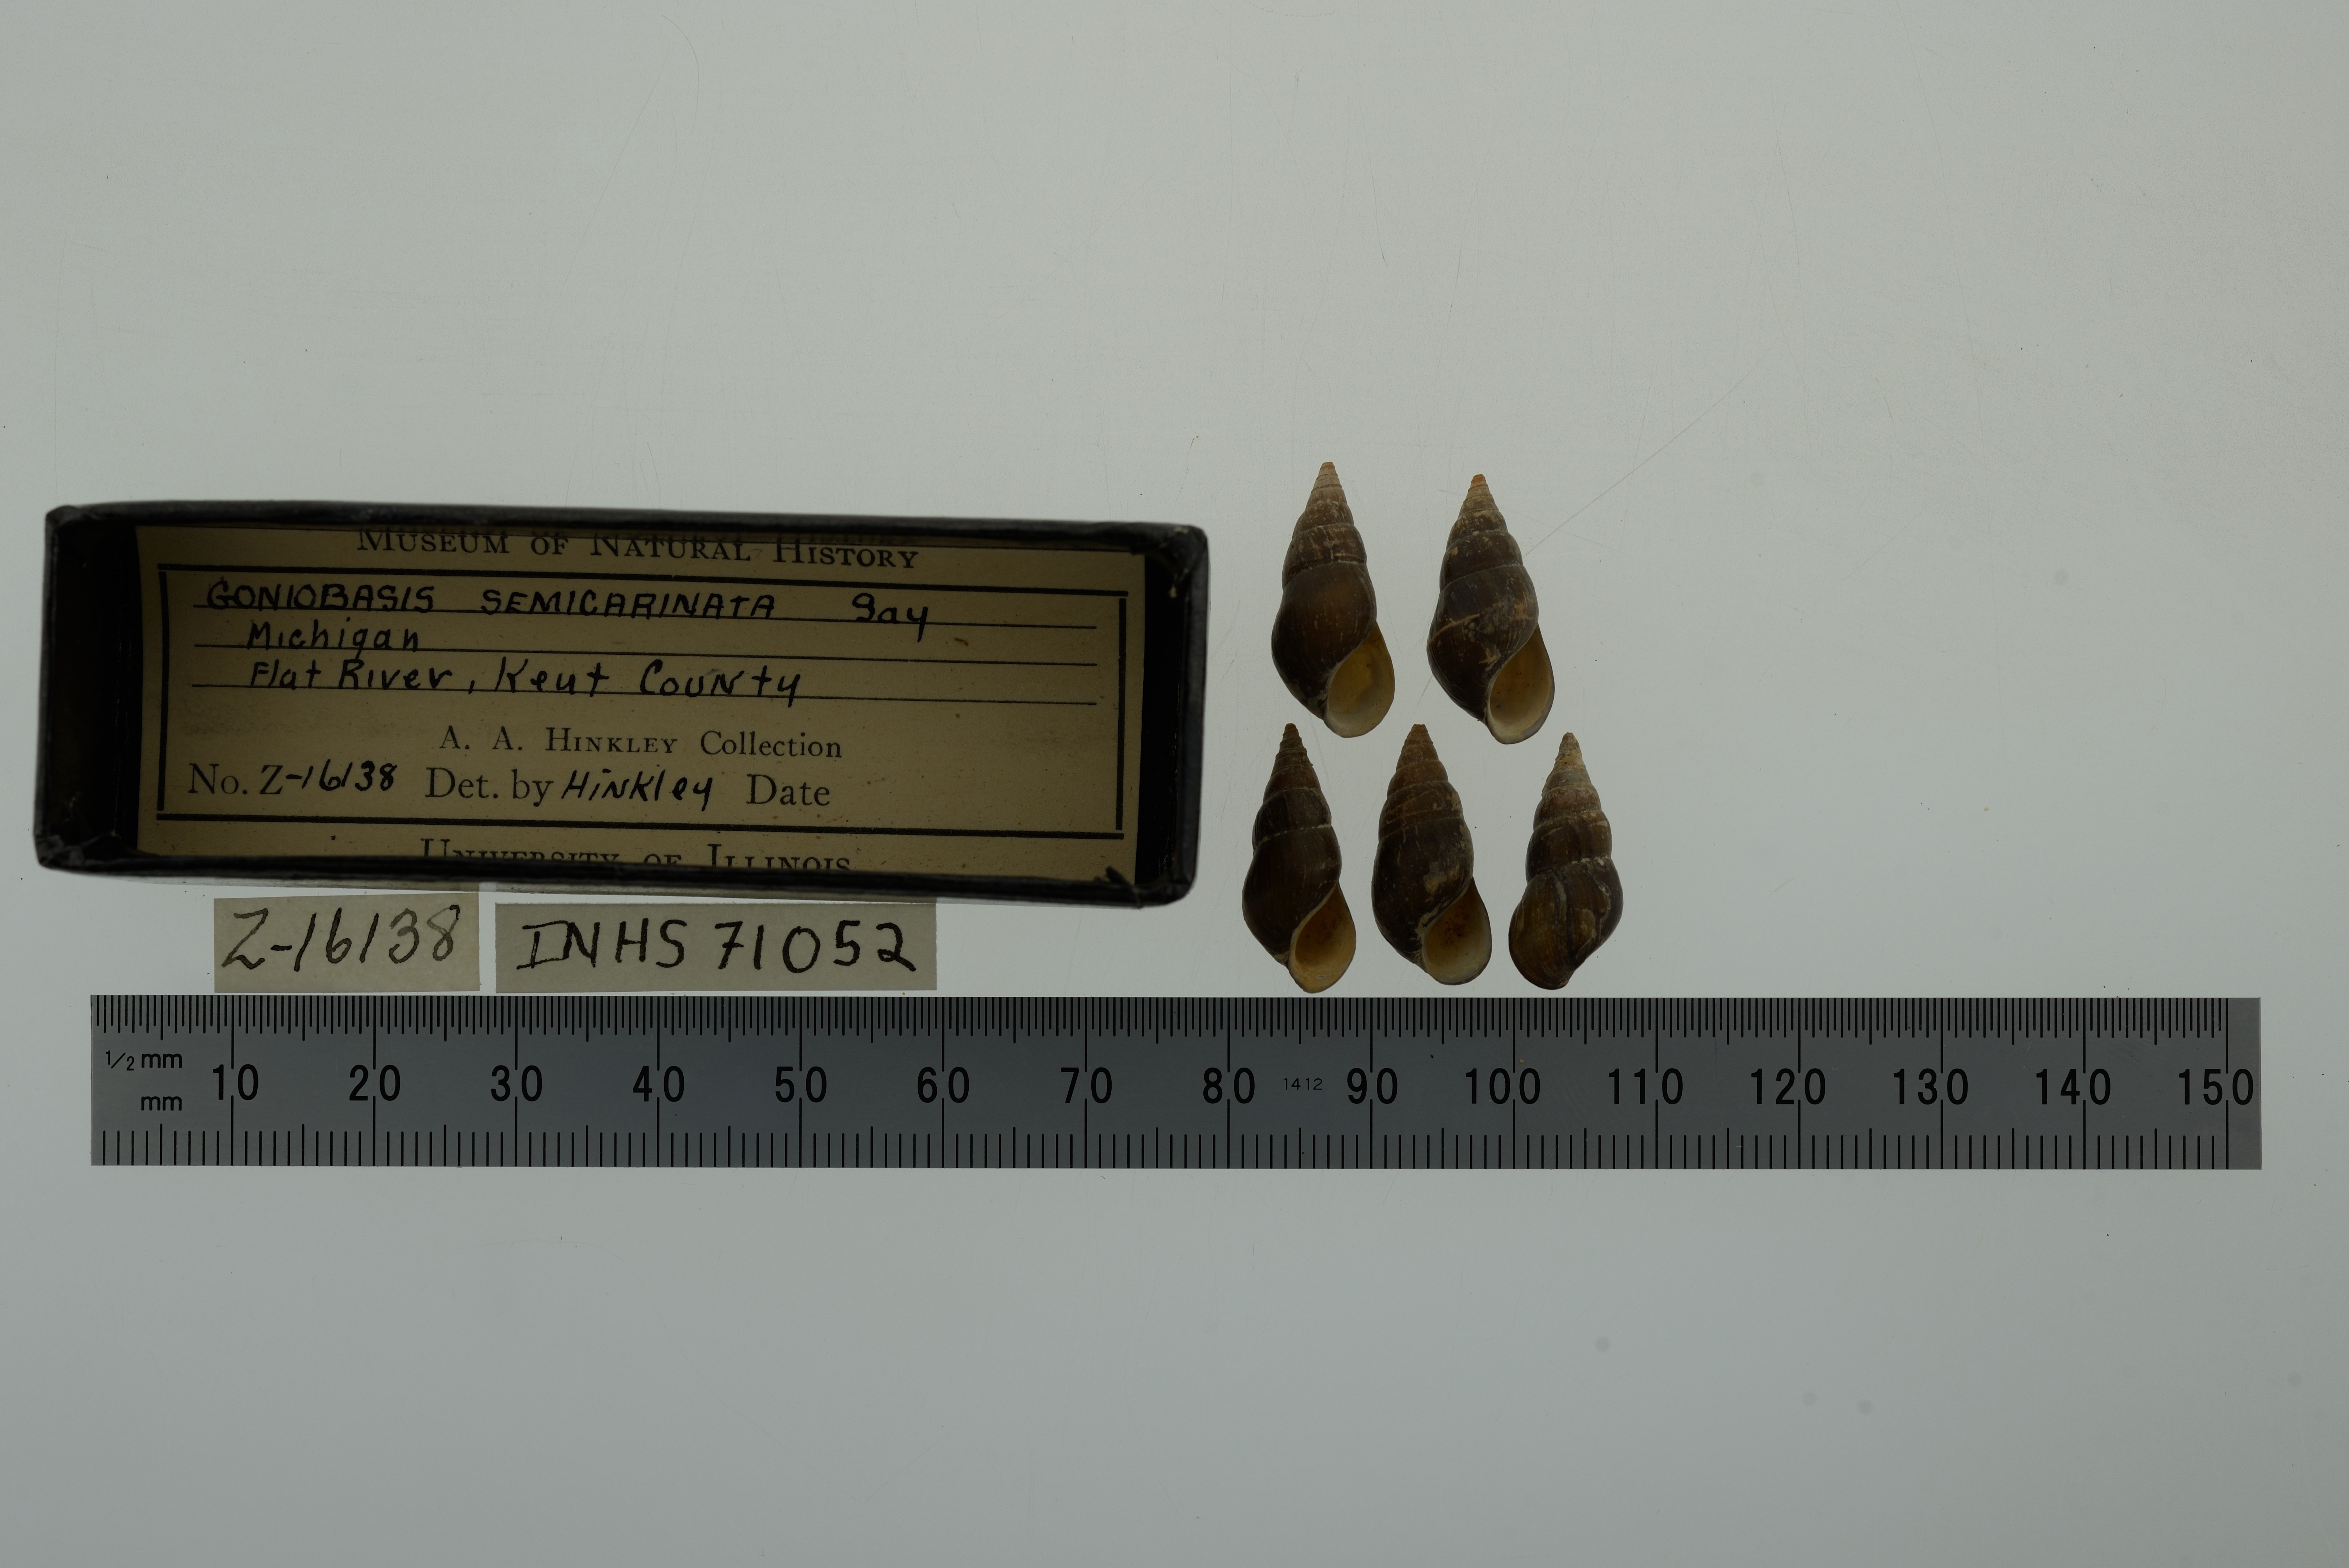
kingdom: Animalia
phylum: Mollusca
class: Gastropoda
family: Pleuroceridae
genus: Elimia
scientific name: Elimia livescens
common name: Liver elimia
